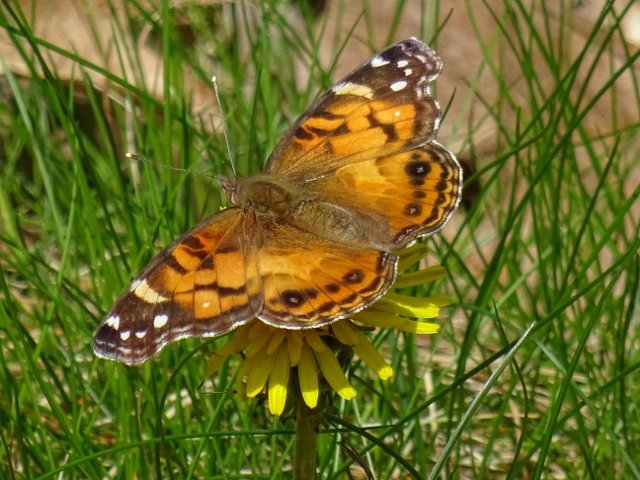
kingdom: Animalia
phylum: Arthropoda
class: Insecta
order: Lepidoptera
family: Nymphalidae
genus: Vanessa
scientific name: Vanessa virginiensis
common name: American Lady
